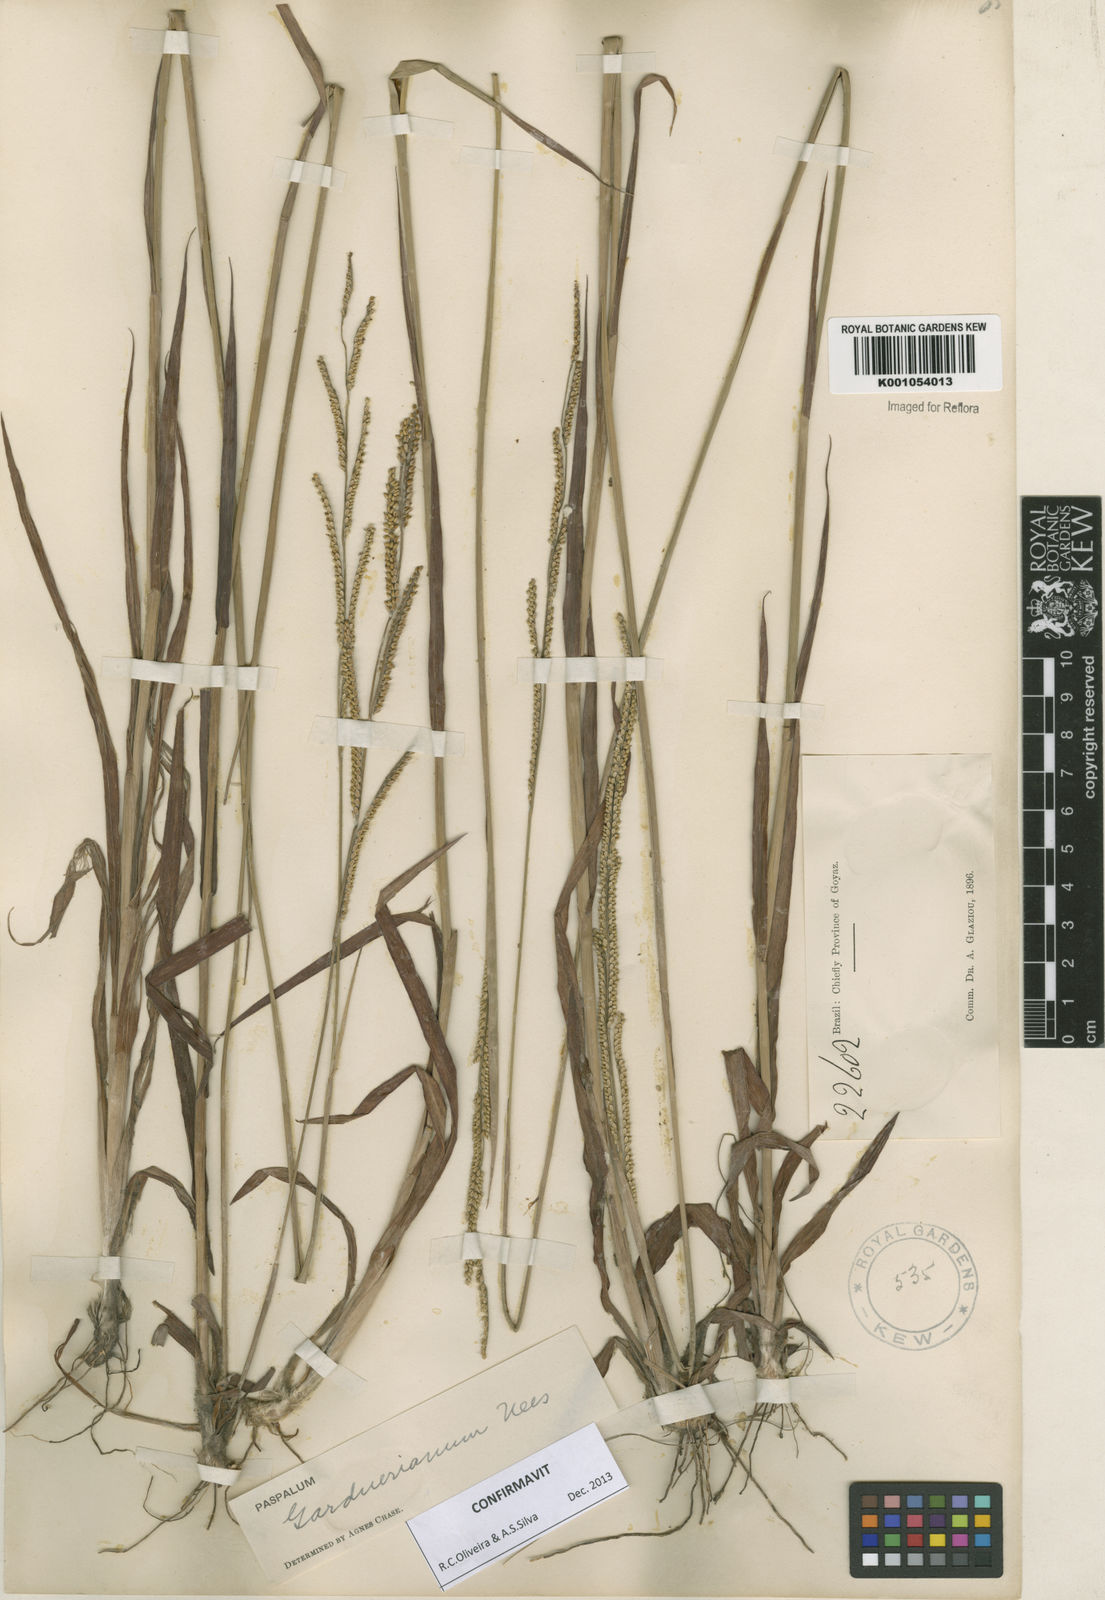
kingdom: Plantae
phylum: Tracheophyta
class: Liliopsida
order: Poales
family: Poaceae
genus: Paspalum
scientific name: Paspalum gardnerianum
